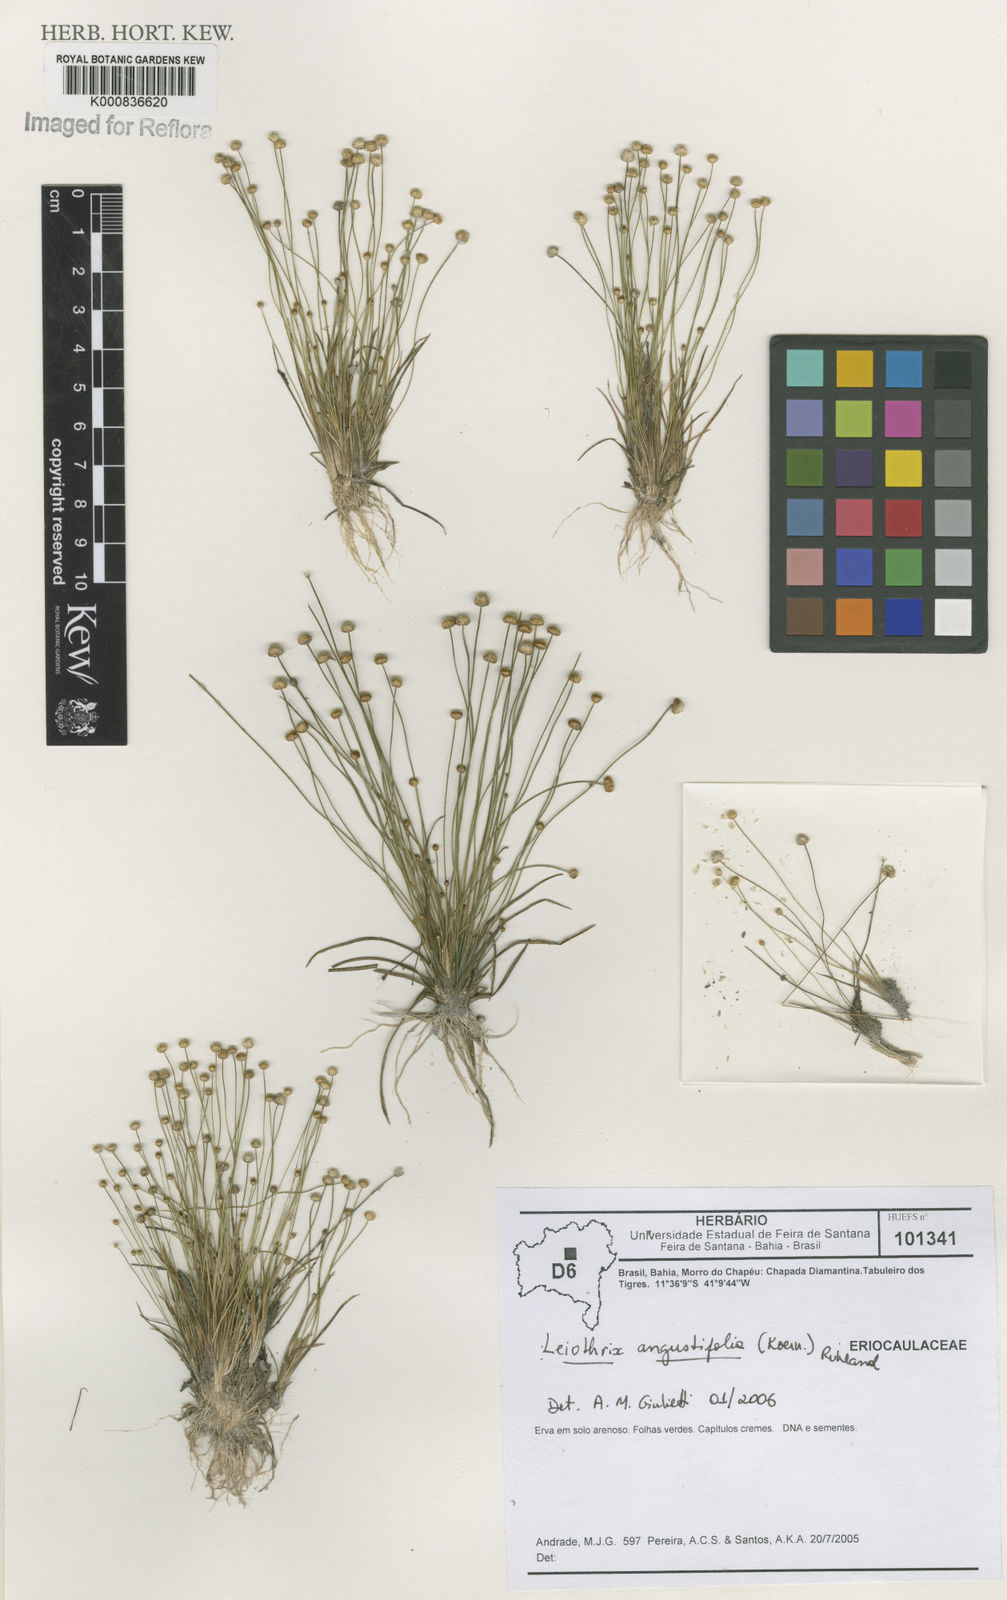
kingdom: Plantae
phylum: Tracheophyta
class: Liliopsida
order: Poales
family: Eriocaulaceae
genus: Leiothrix
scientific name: Leiothrix angustifolia
